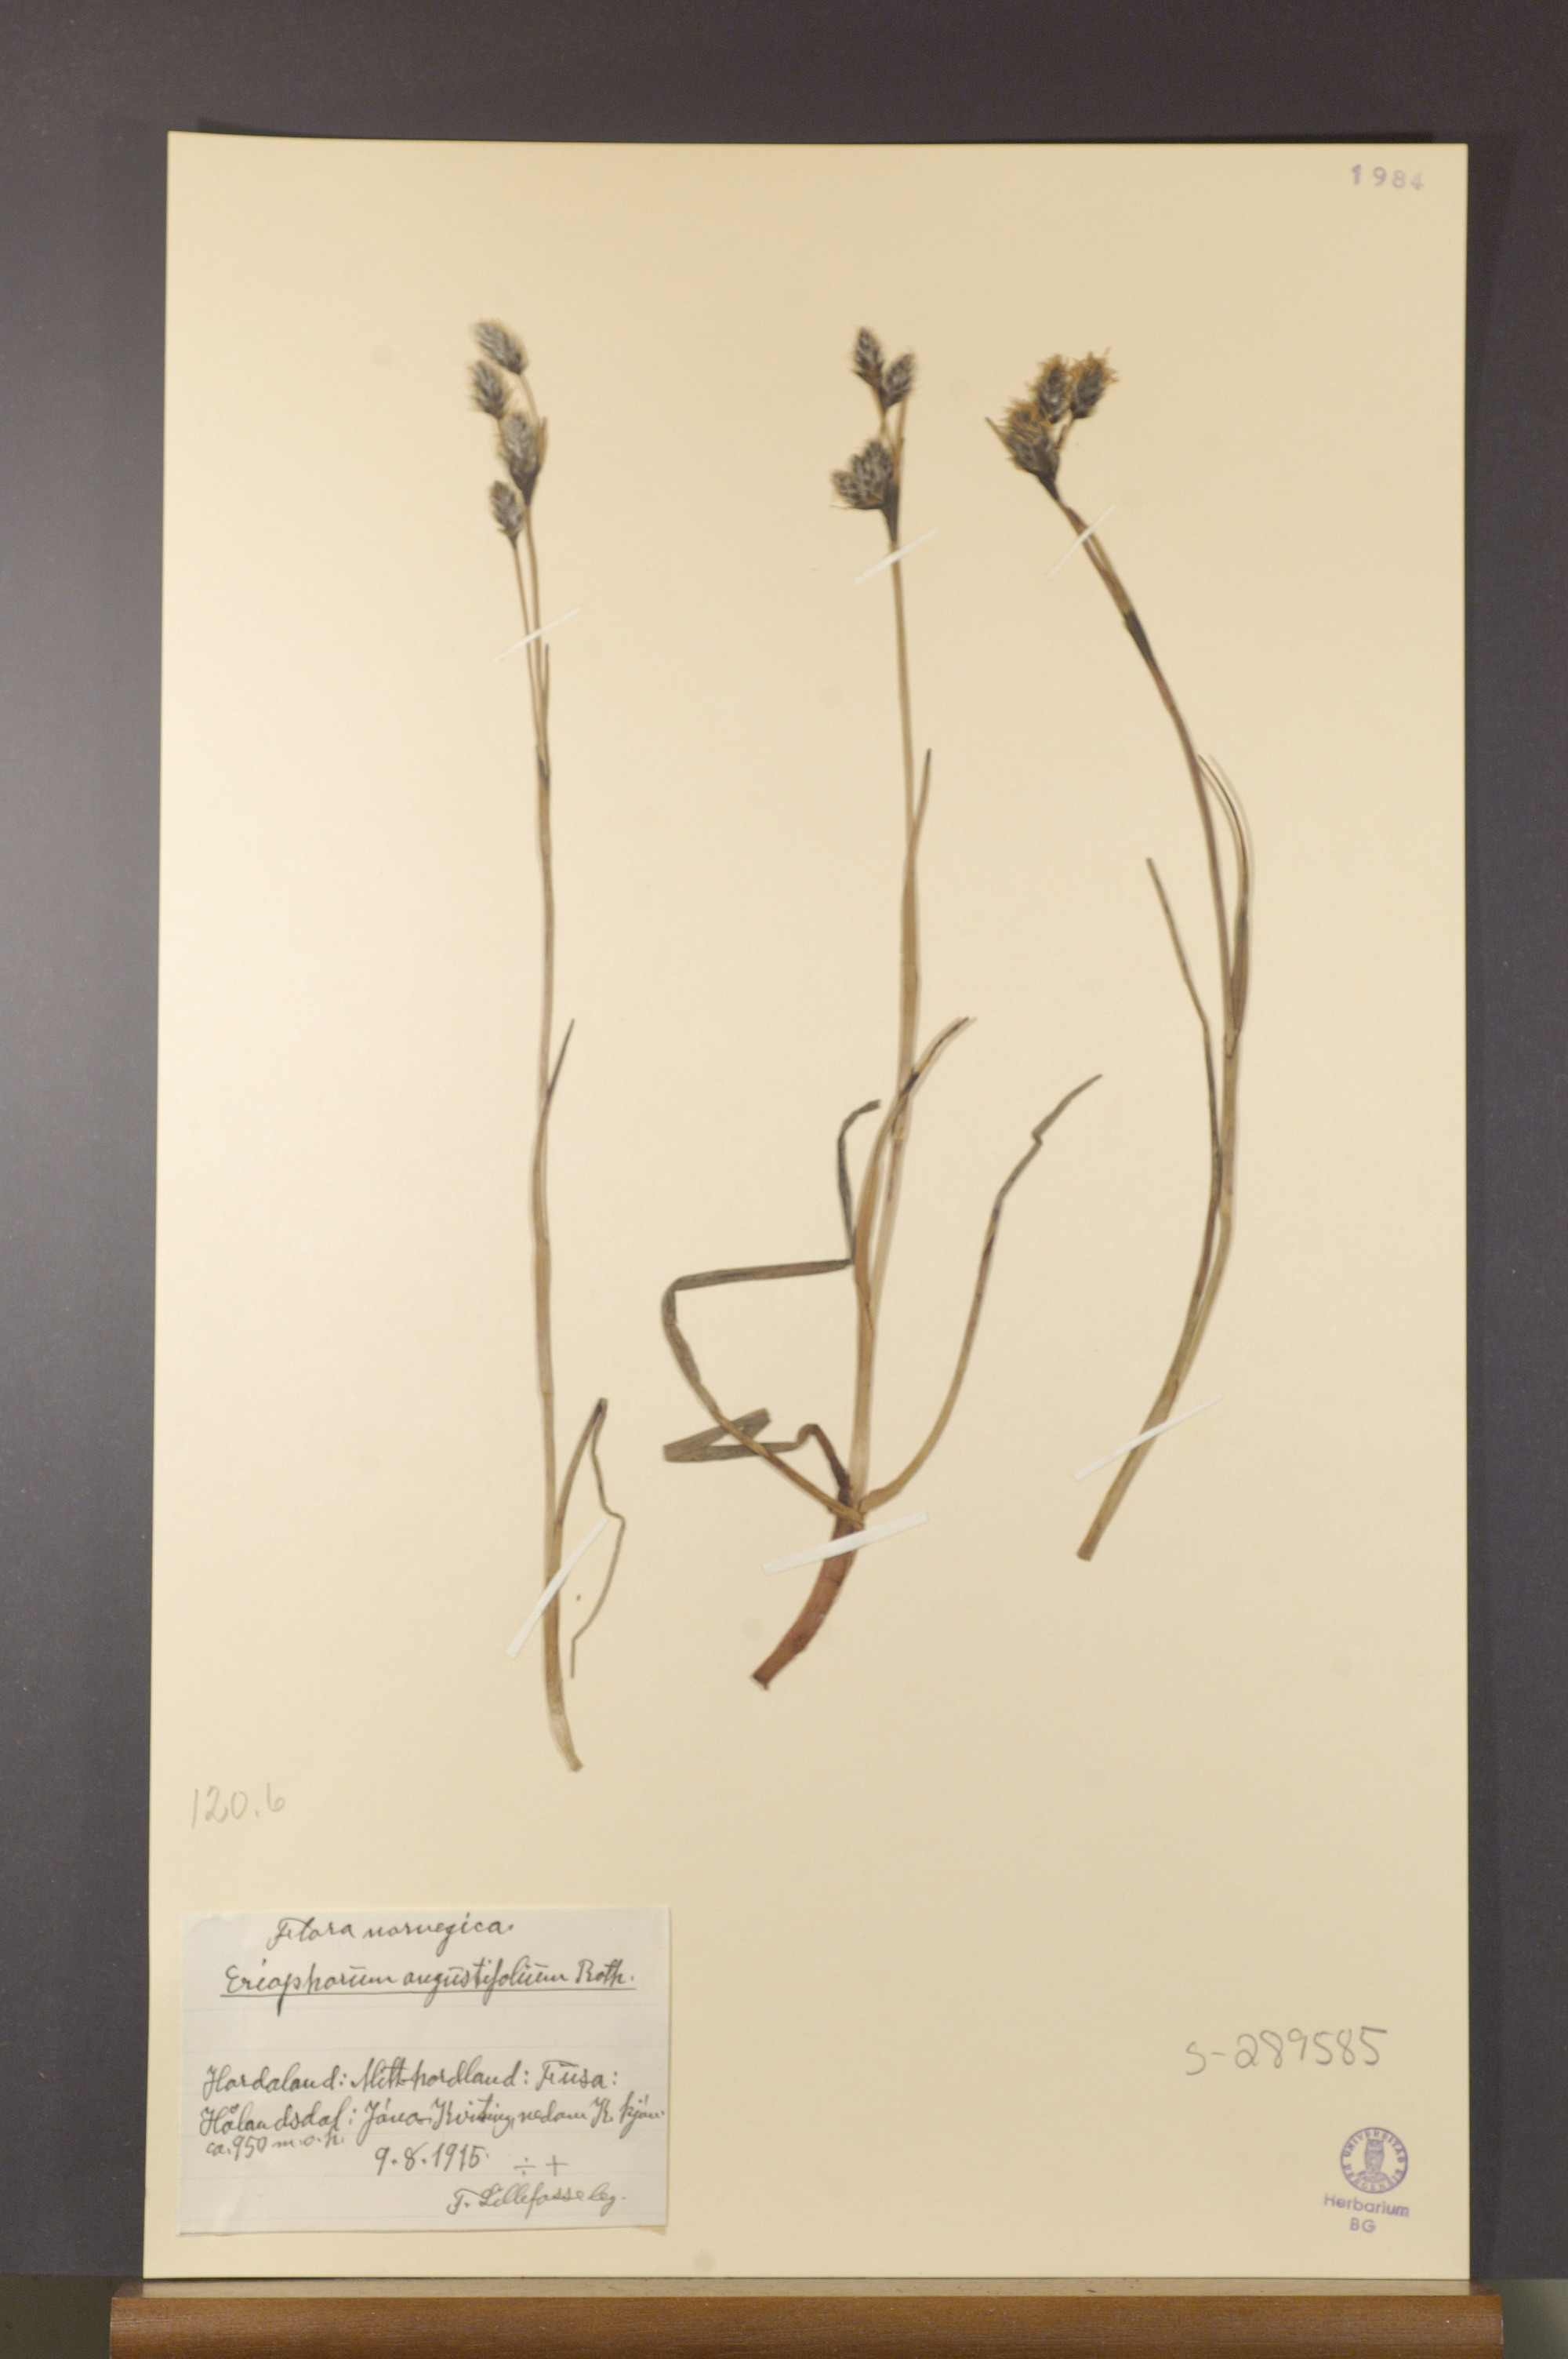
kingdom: Plantae
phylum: Tracheophyta
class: Liliopsida
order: Poales
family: Cyperaceae
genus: Eriophorum
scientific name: Eriophorum angustifolium
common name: Common cottongrass
